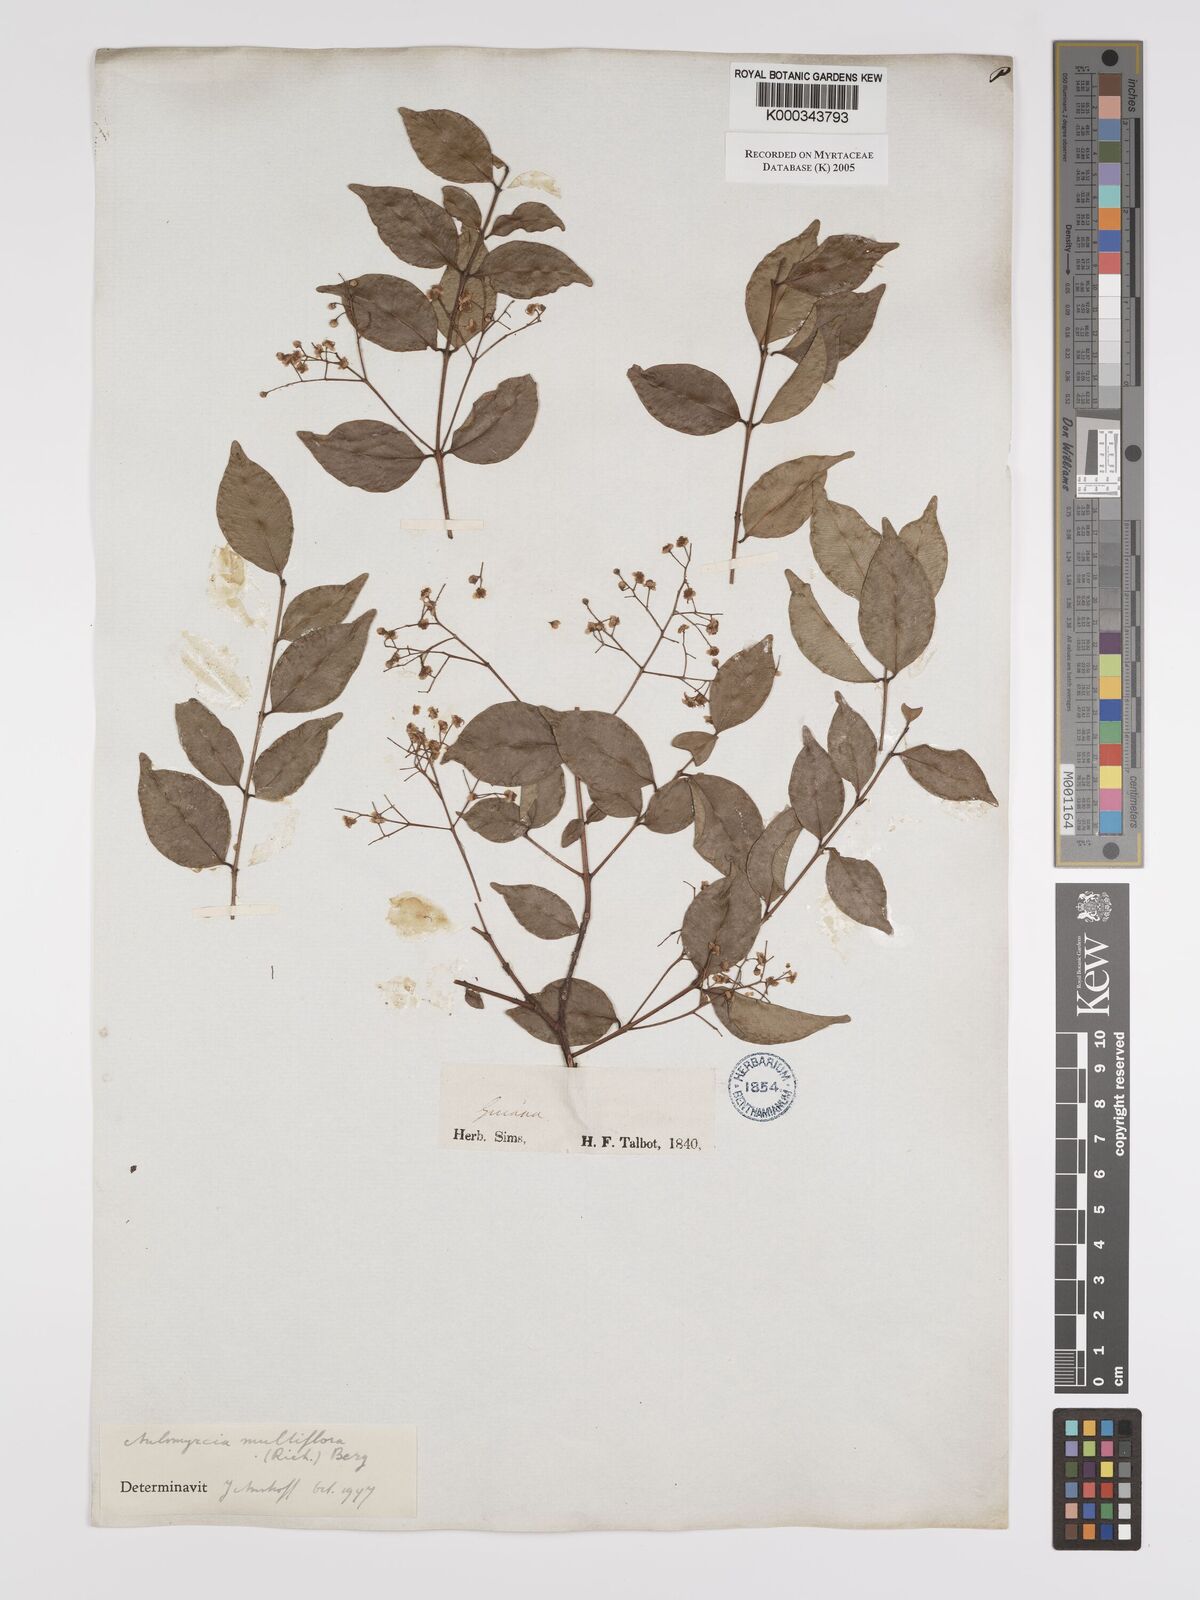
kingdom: Plantae
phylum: Tracheophyta
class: Magnoliopsida
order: Myrtales
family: Myrtaceae
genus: Myrcia
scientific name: Myrcia multiflora
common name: Pedra hume
